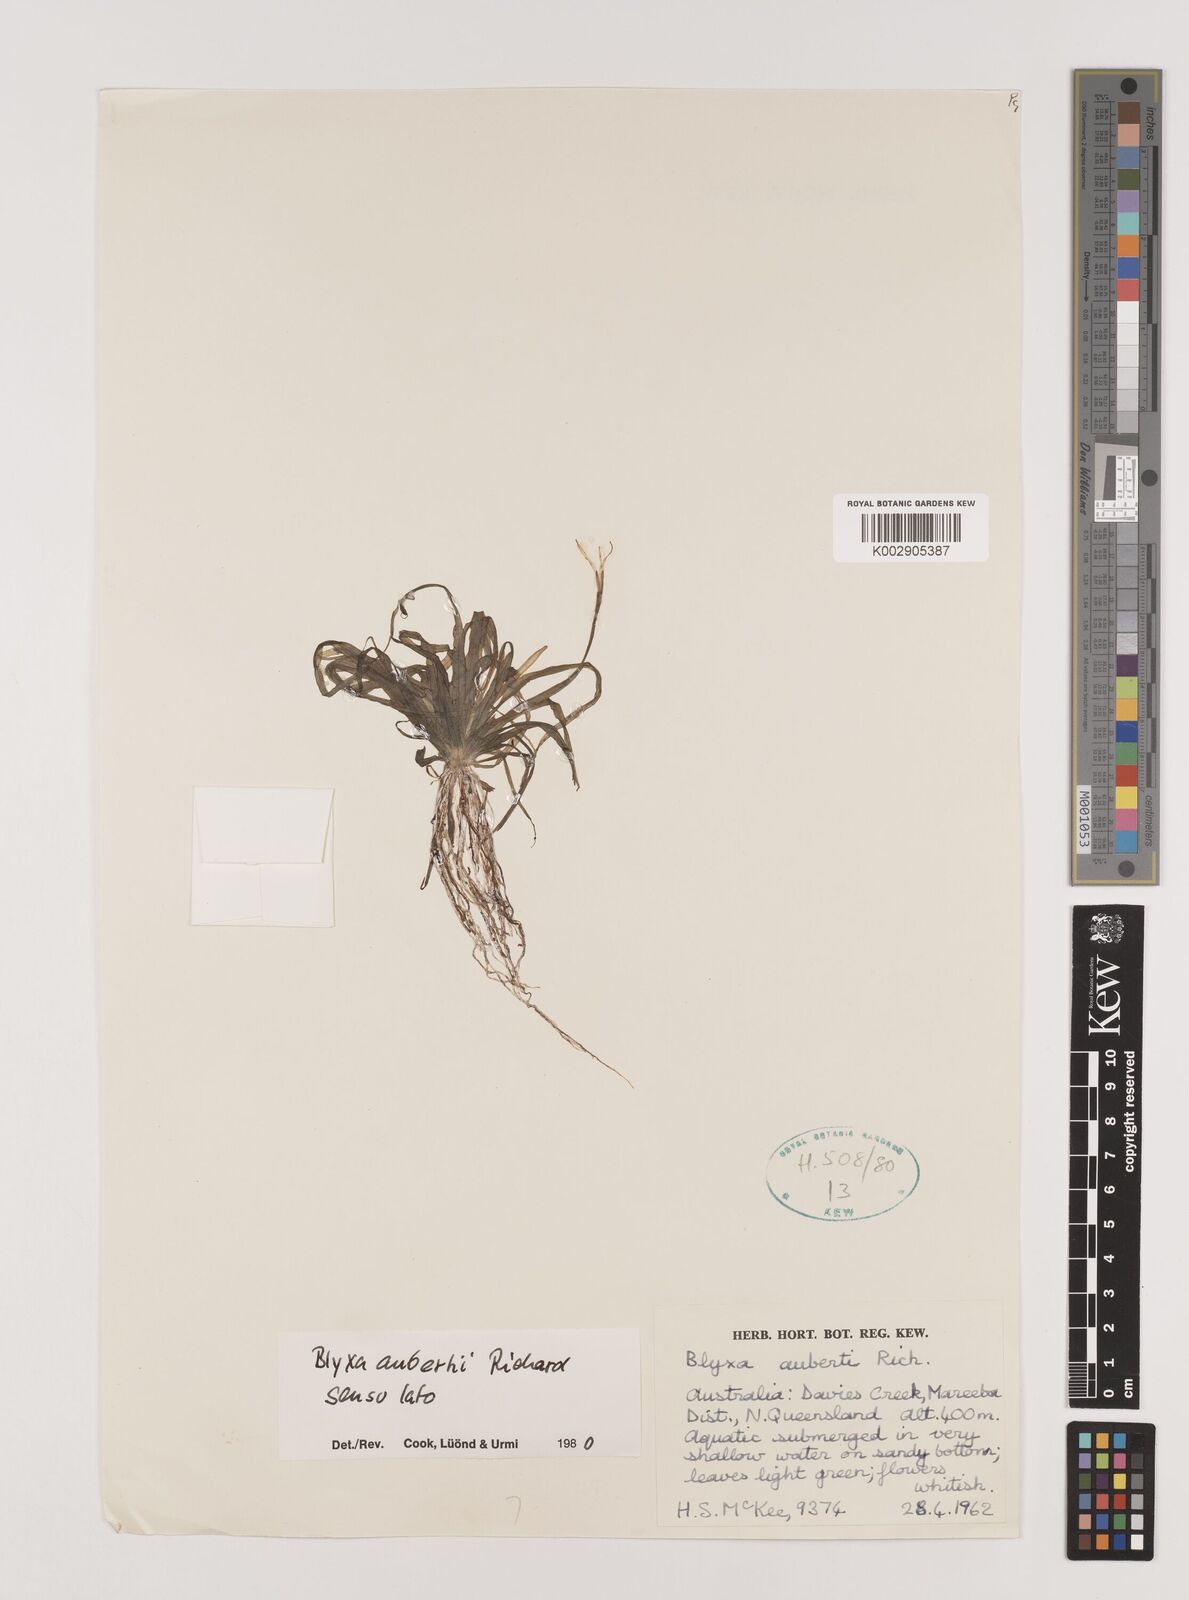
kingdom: Plantae
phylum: Tracheophyta
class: Liliopsida
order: Alismatales
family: Hydrocharitaceae
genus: Blyxa
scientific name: Blyxa aubertii
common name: Roundfruit blyxa
